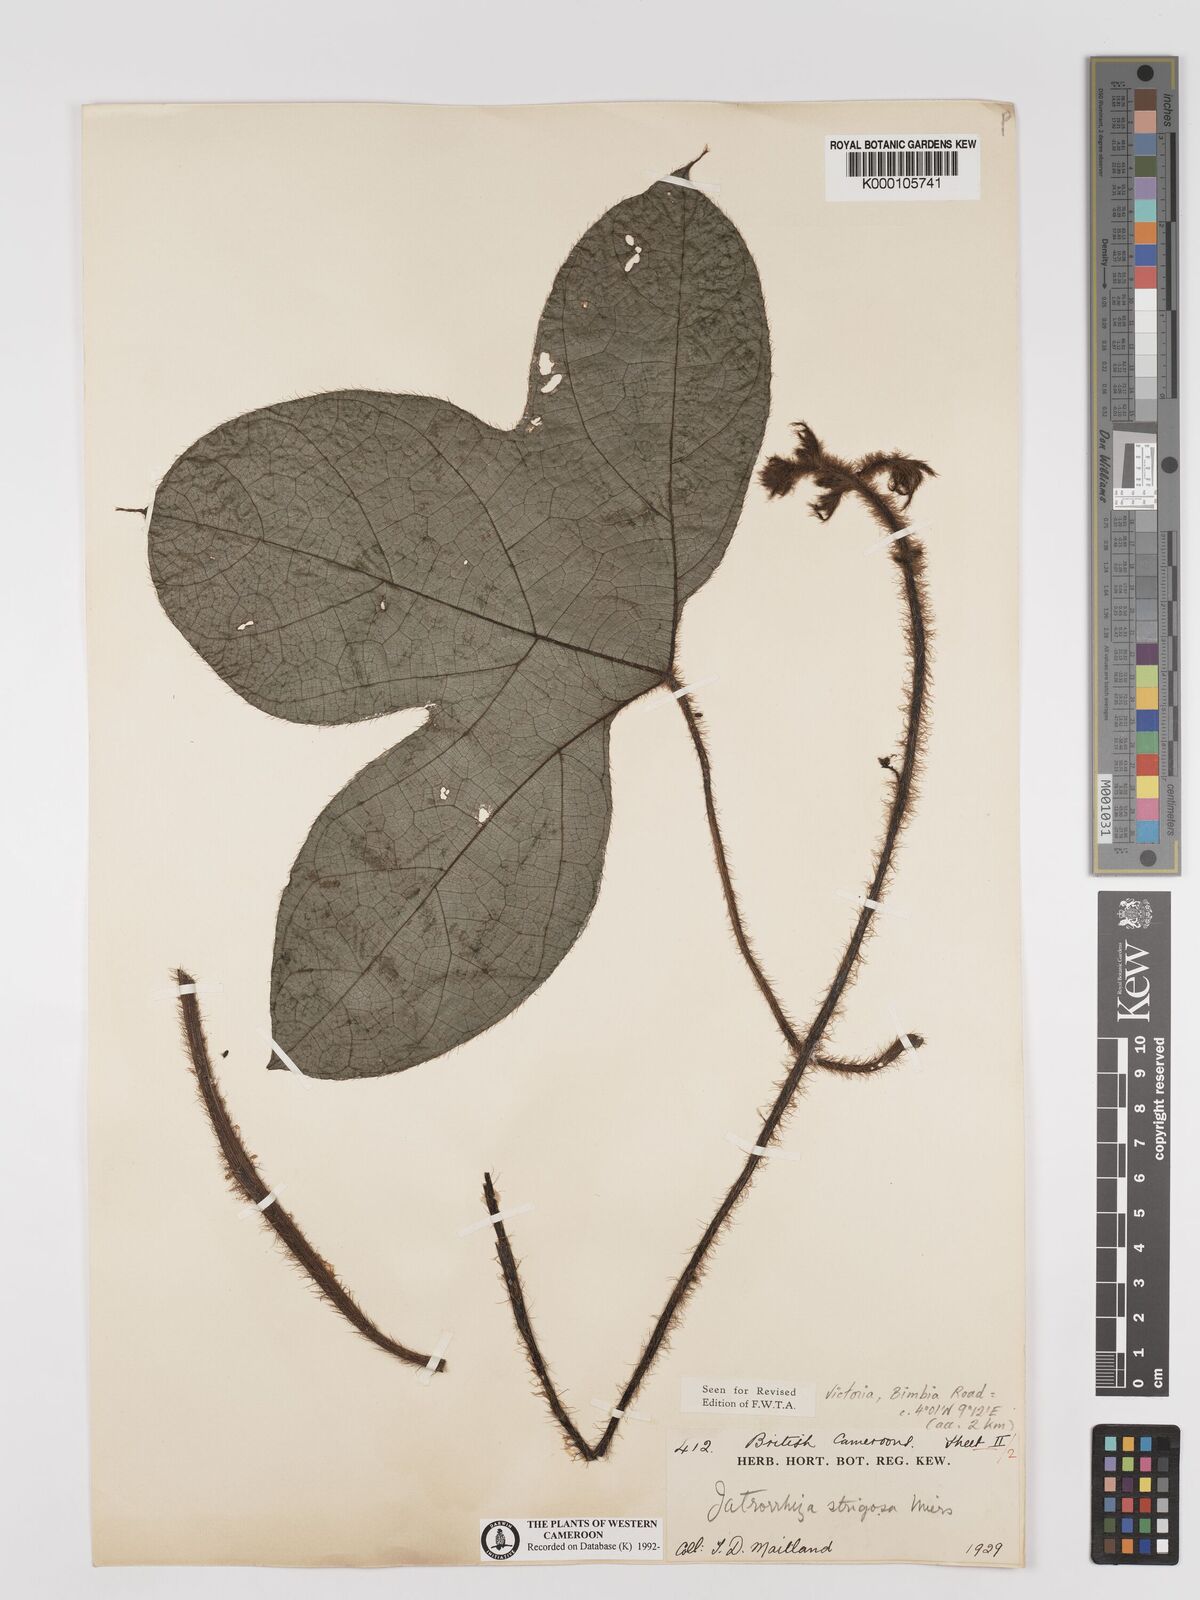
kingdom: Plantae
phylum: Tracheophyta
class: Magnoliopsida
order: Ranunculales
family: Menispermaceae
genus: Jateorhiza
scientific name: Jateorhiza
